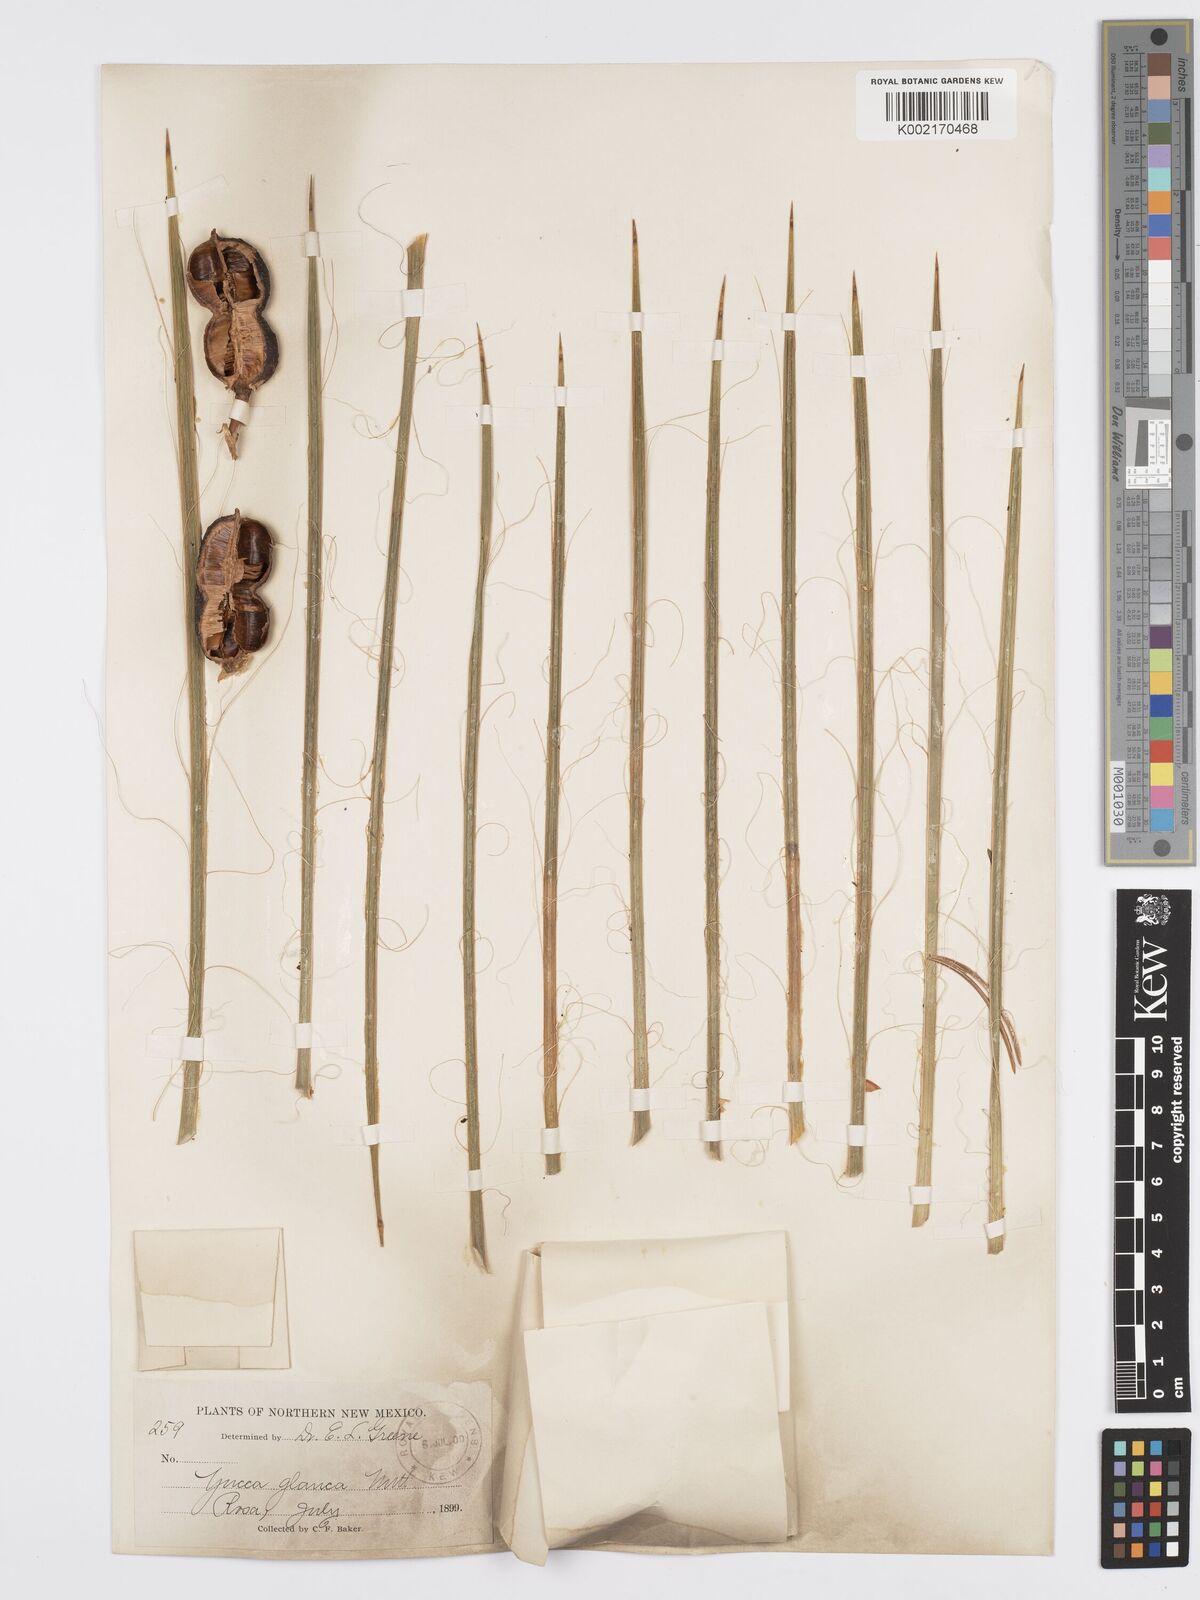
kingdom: Plantae
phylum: Tracheophyta
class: Liliopsida
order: Asparagales
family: Asparagaceae
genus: Yucca
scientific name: Yucca glauca
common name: Great plains yucca
